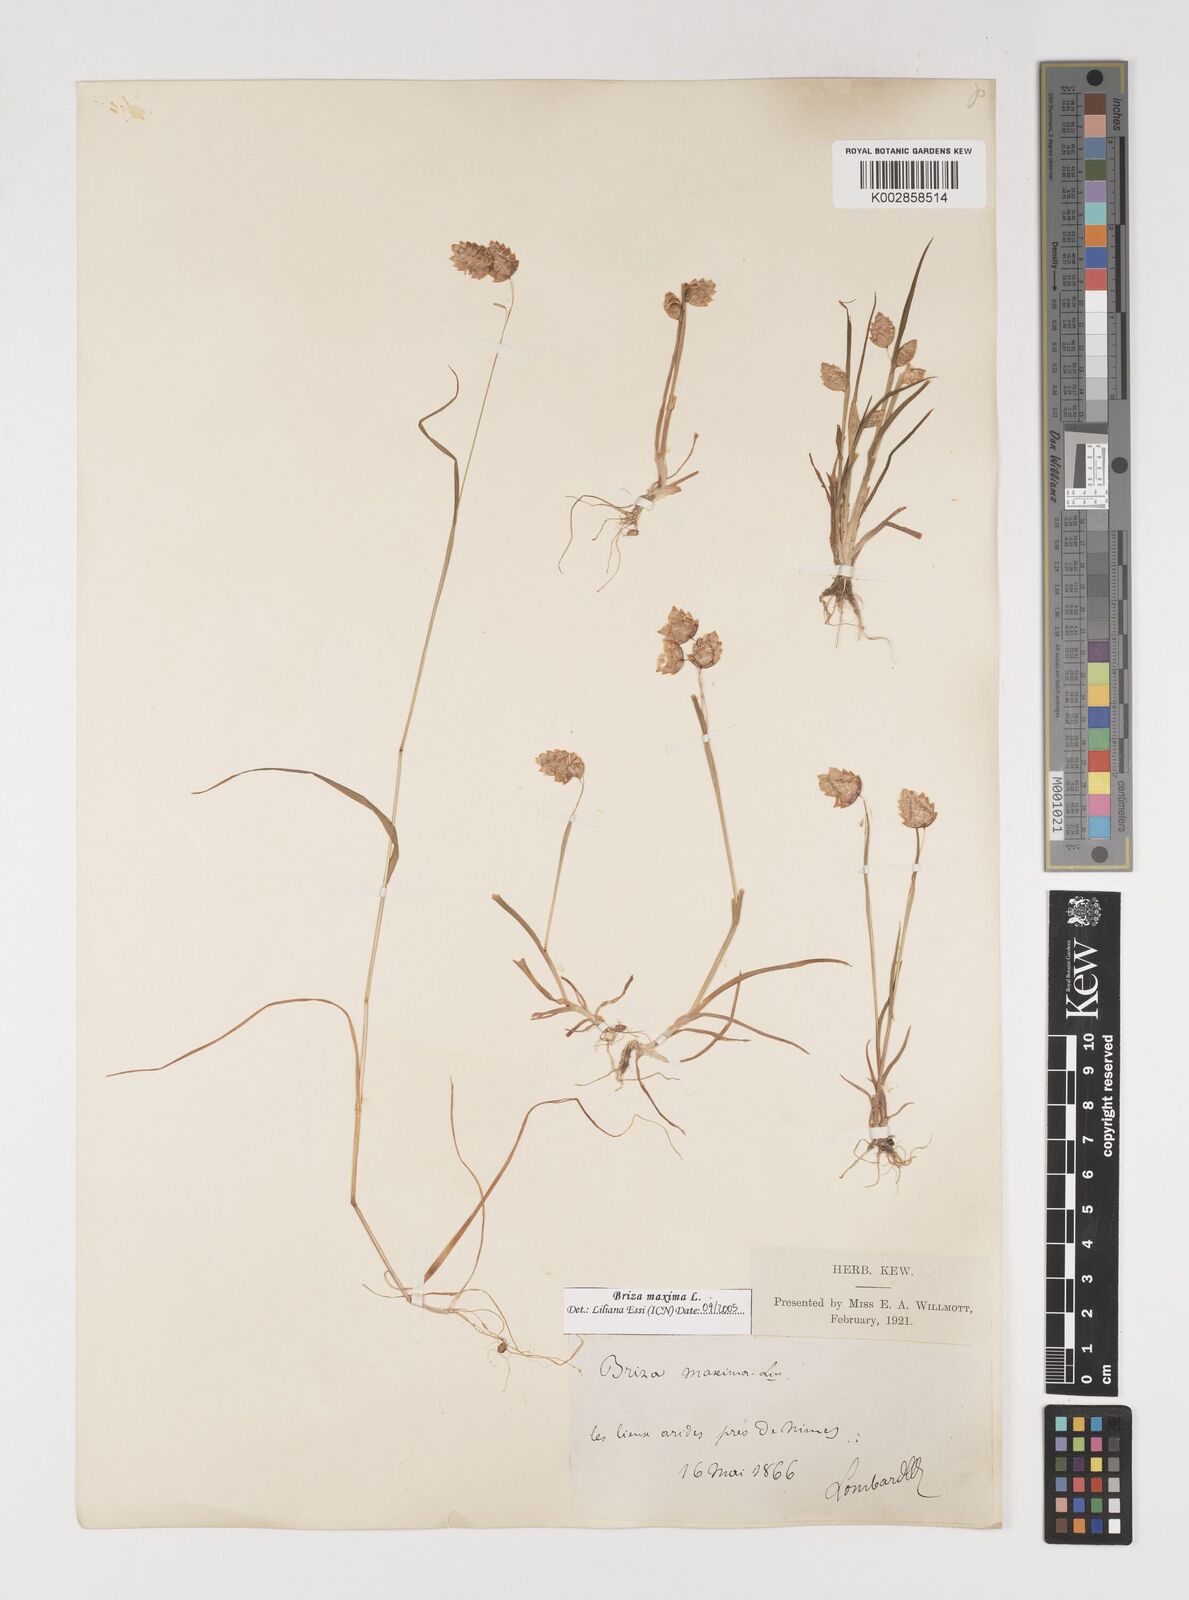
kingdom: Plantae
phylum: Tracheophyta
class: Liliopsida
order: Poales
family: Poaceae
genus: Briza
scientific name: Briza maxima
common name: Big quakinggrass
